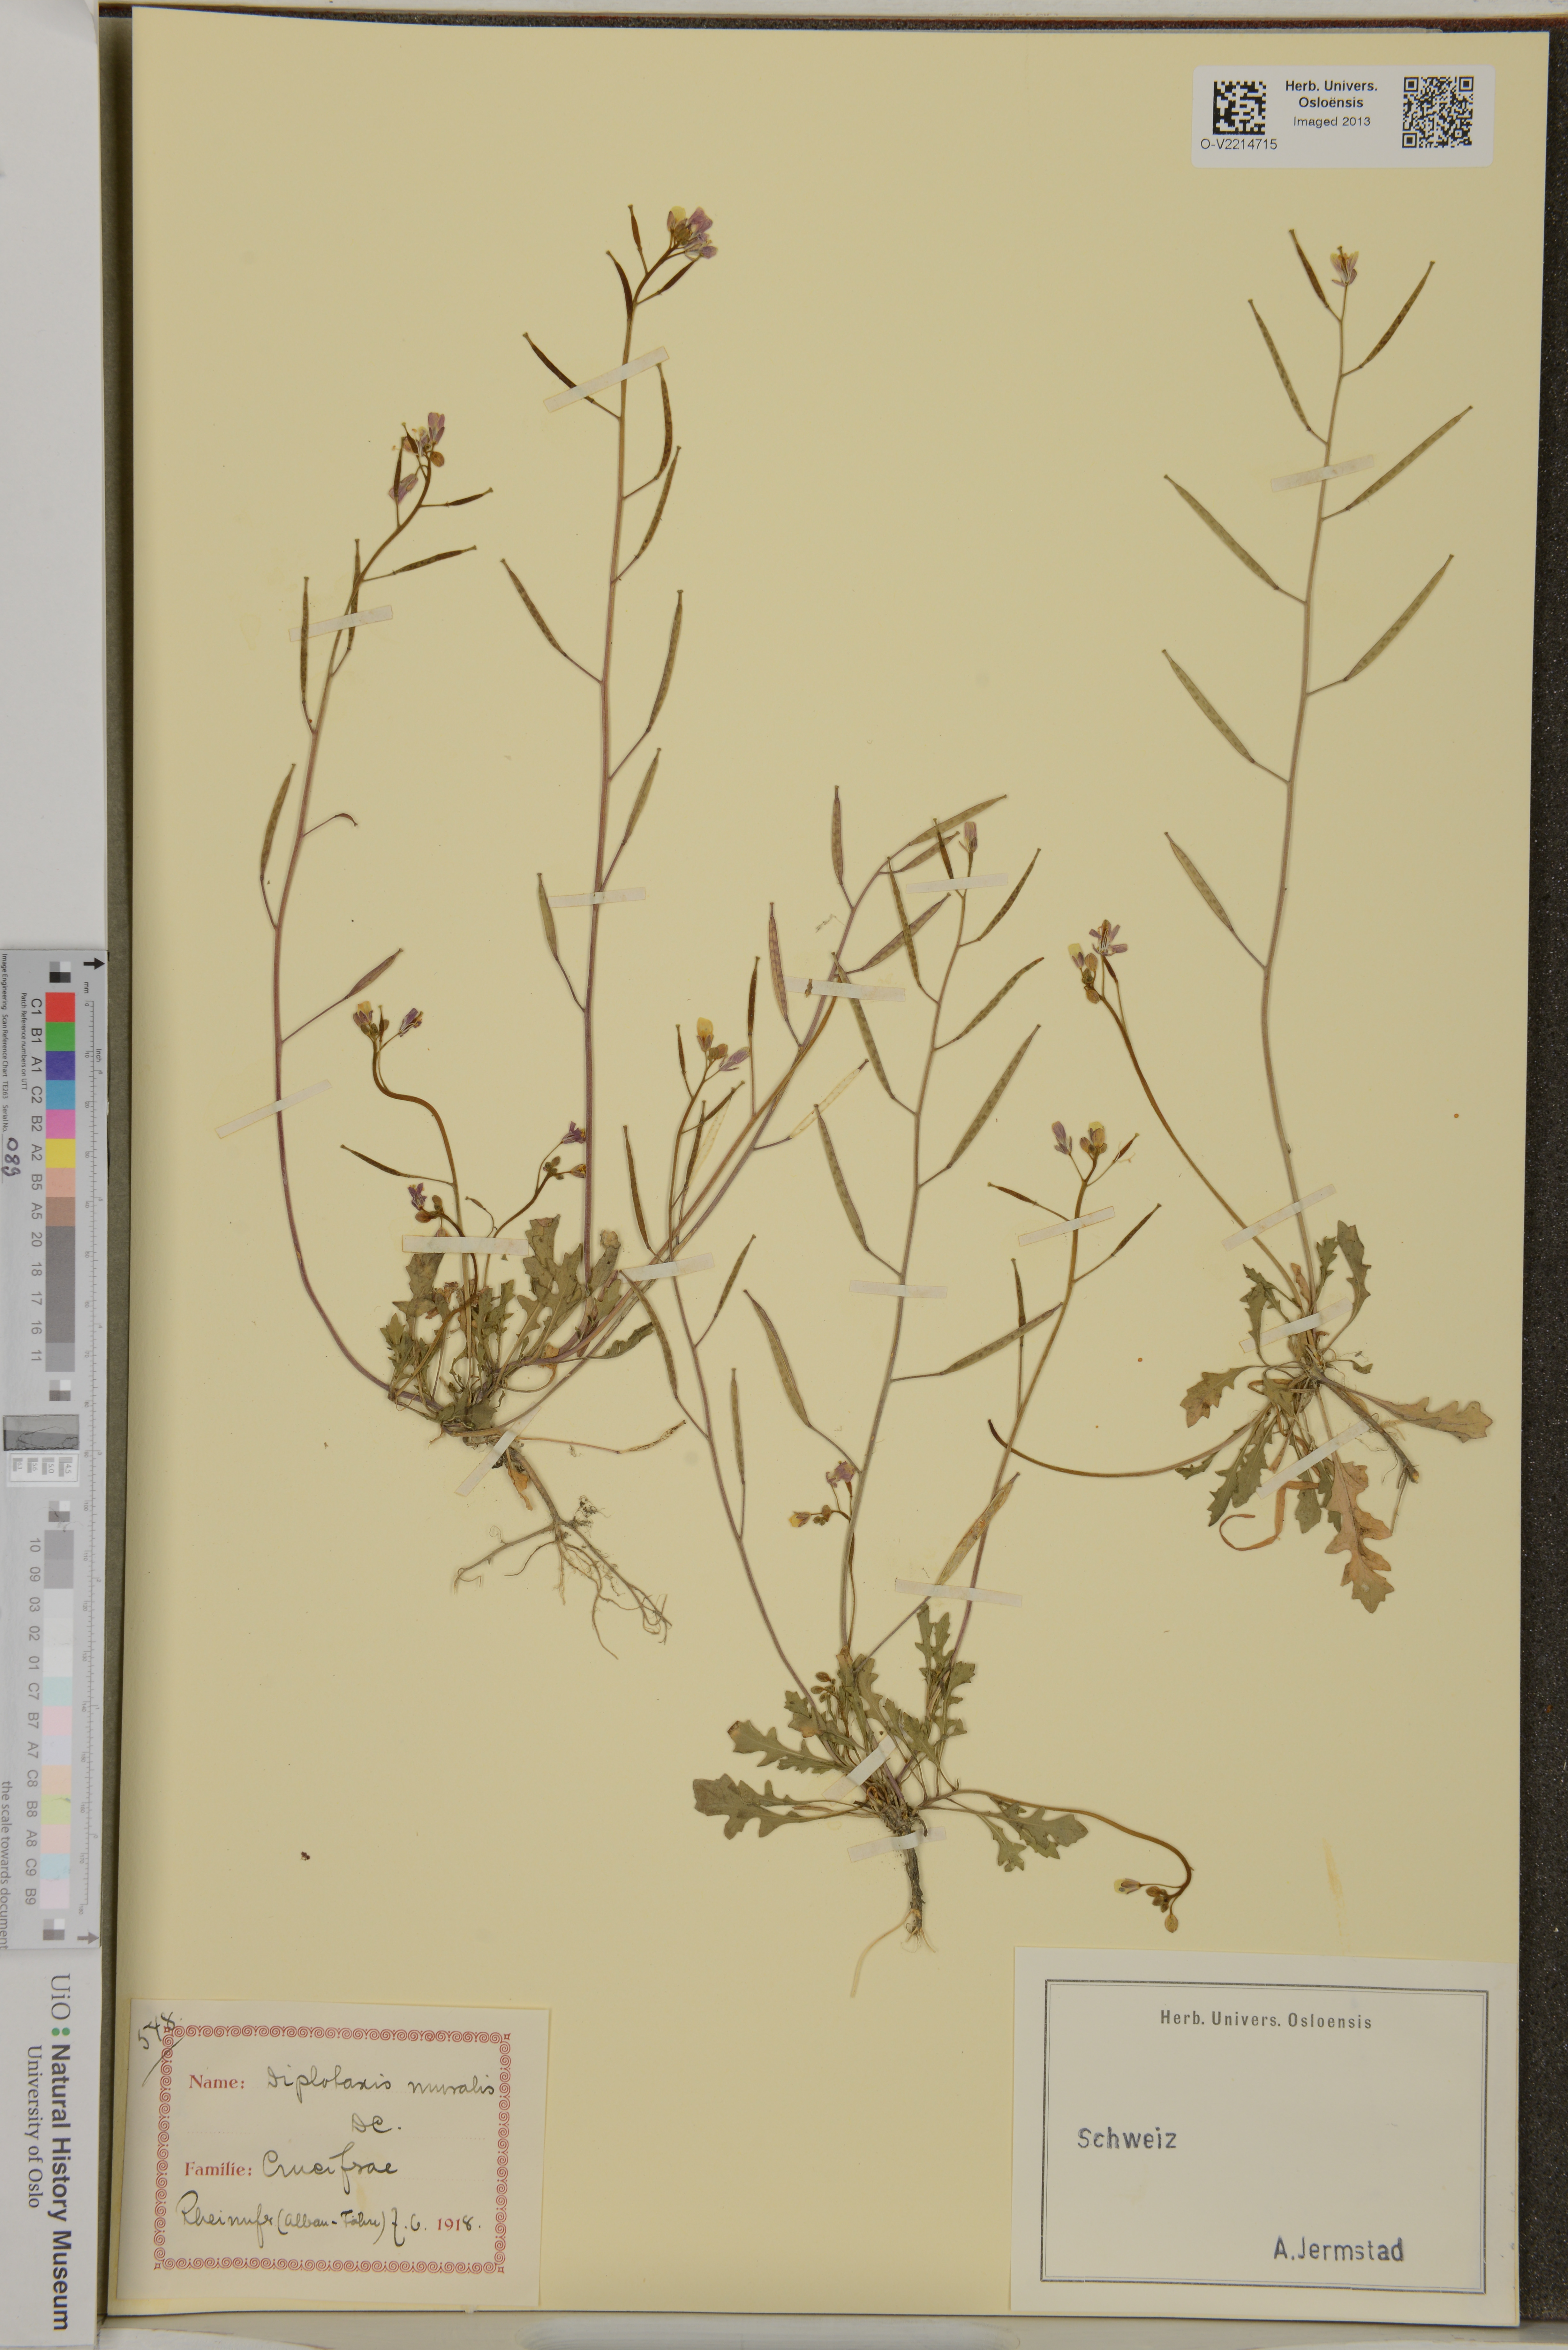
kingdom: Plantae
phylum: Tracheophyta
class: Magnoliopsida
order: Brassicales
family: Brassicaceae
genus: Diplotaxis
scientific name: Diplotaxis muralis
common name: Annual wall-rocket
